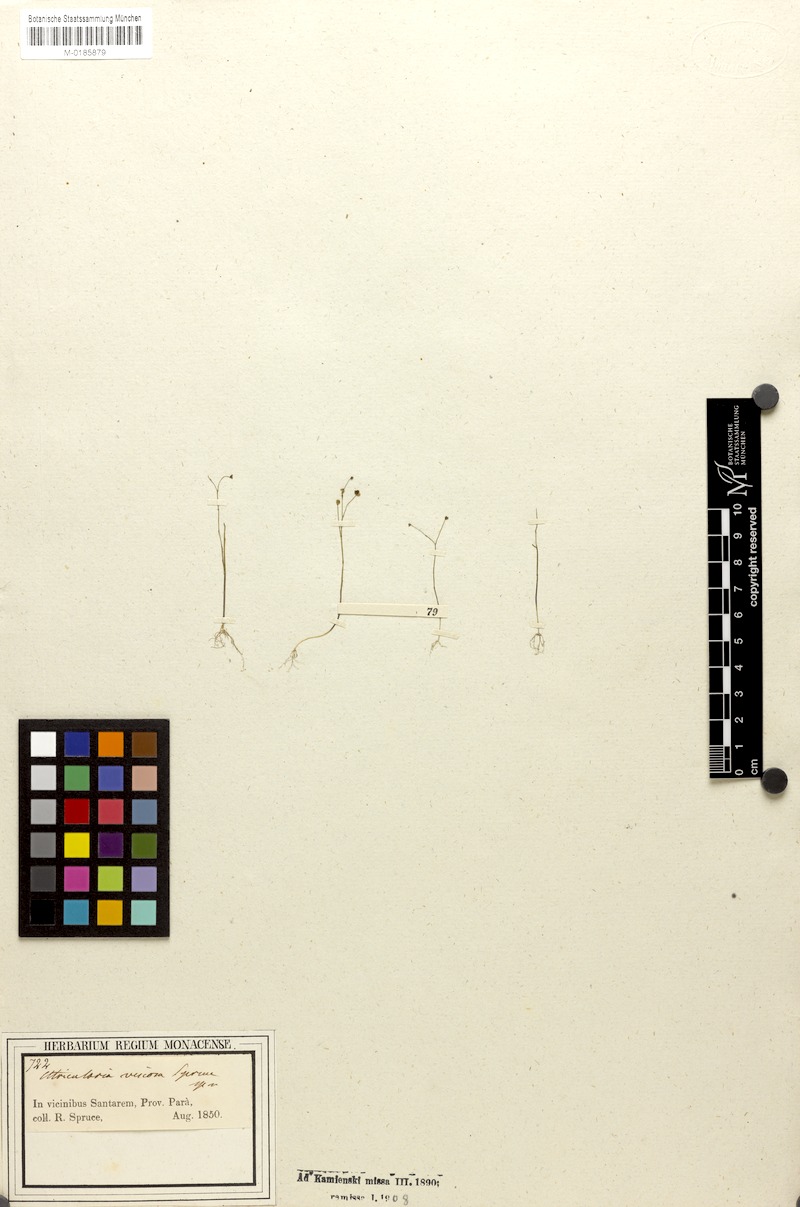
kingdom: Plantae
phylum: Tracheophyta
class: Magnoliopsida
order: Lamiales
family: Lentibulariaceae
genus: Utricularia
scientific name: Utricularia viscosa
